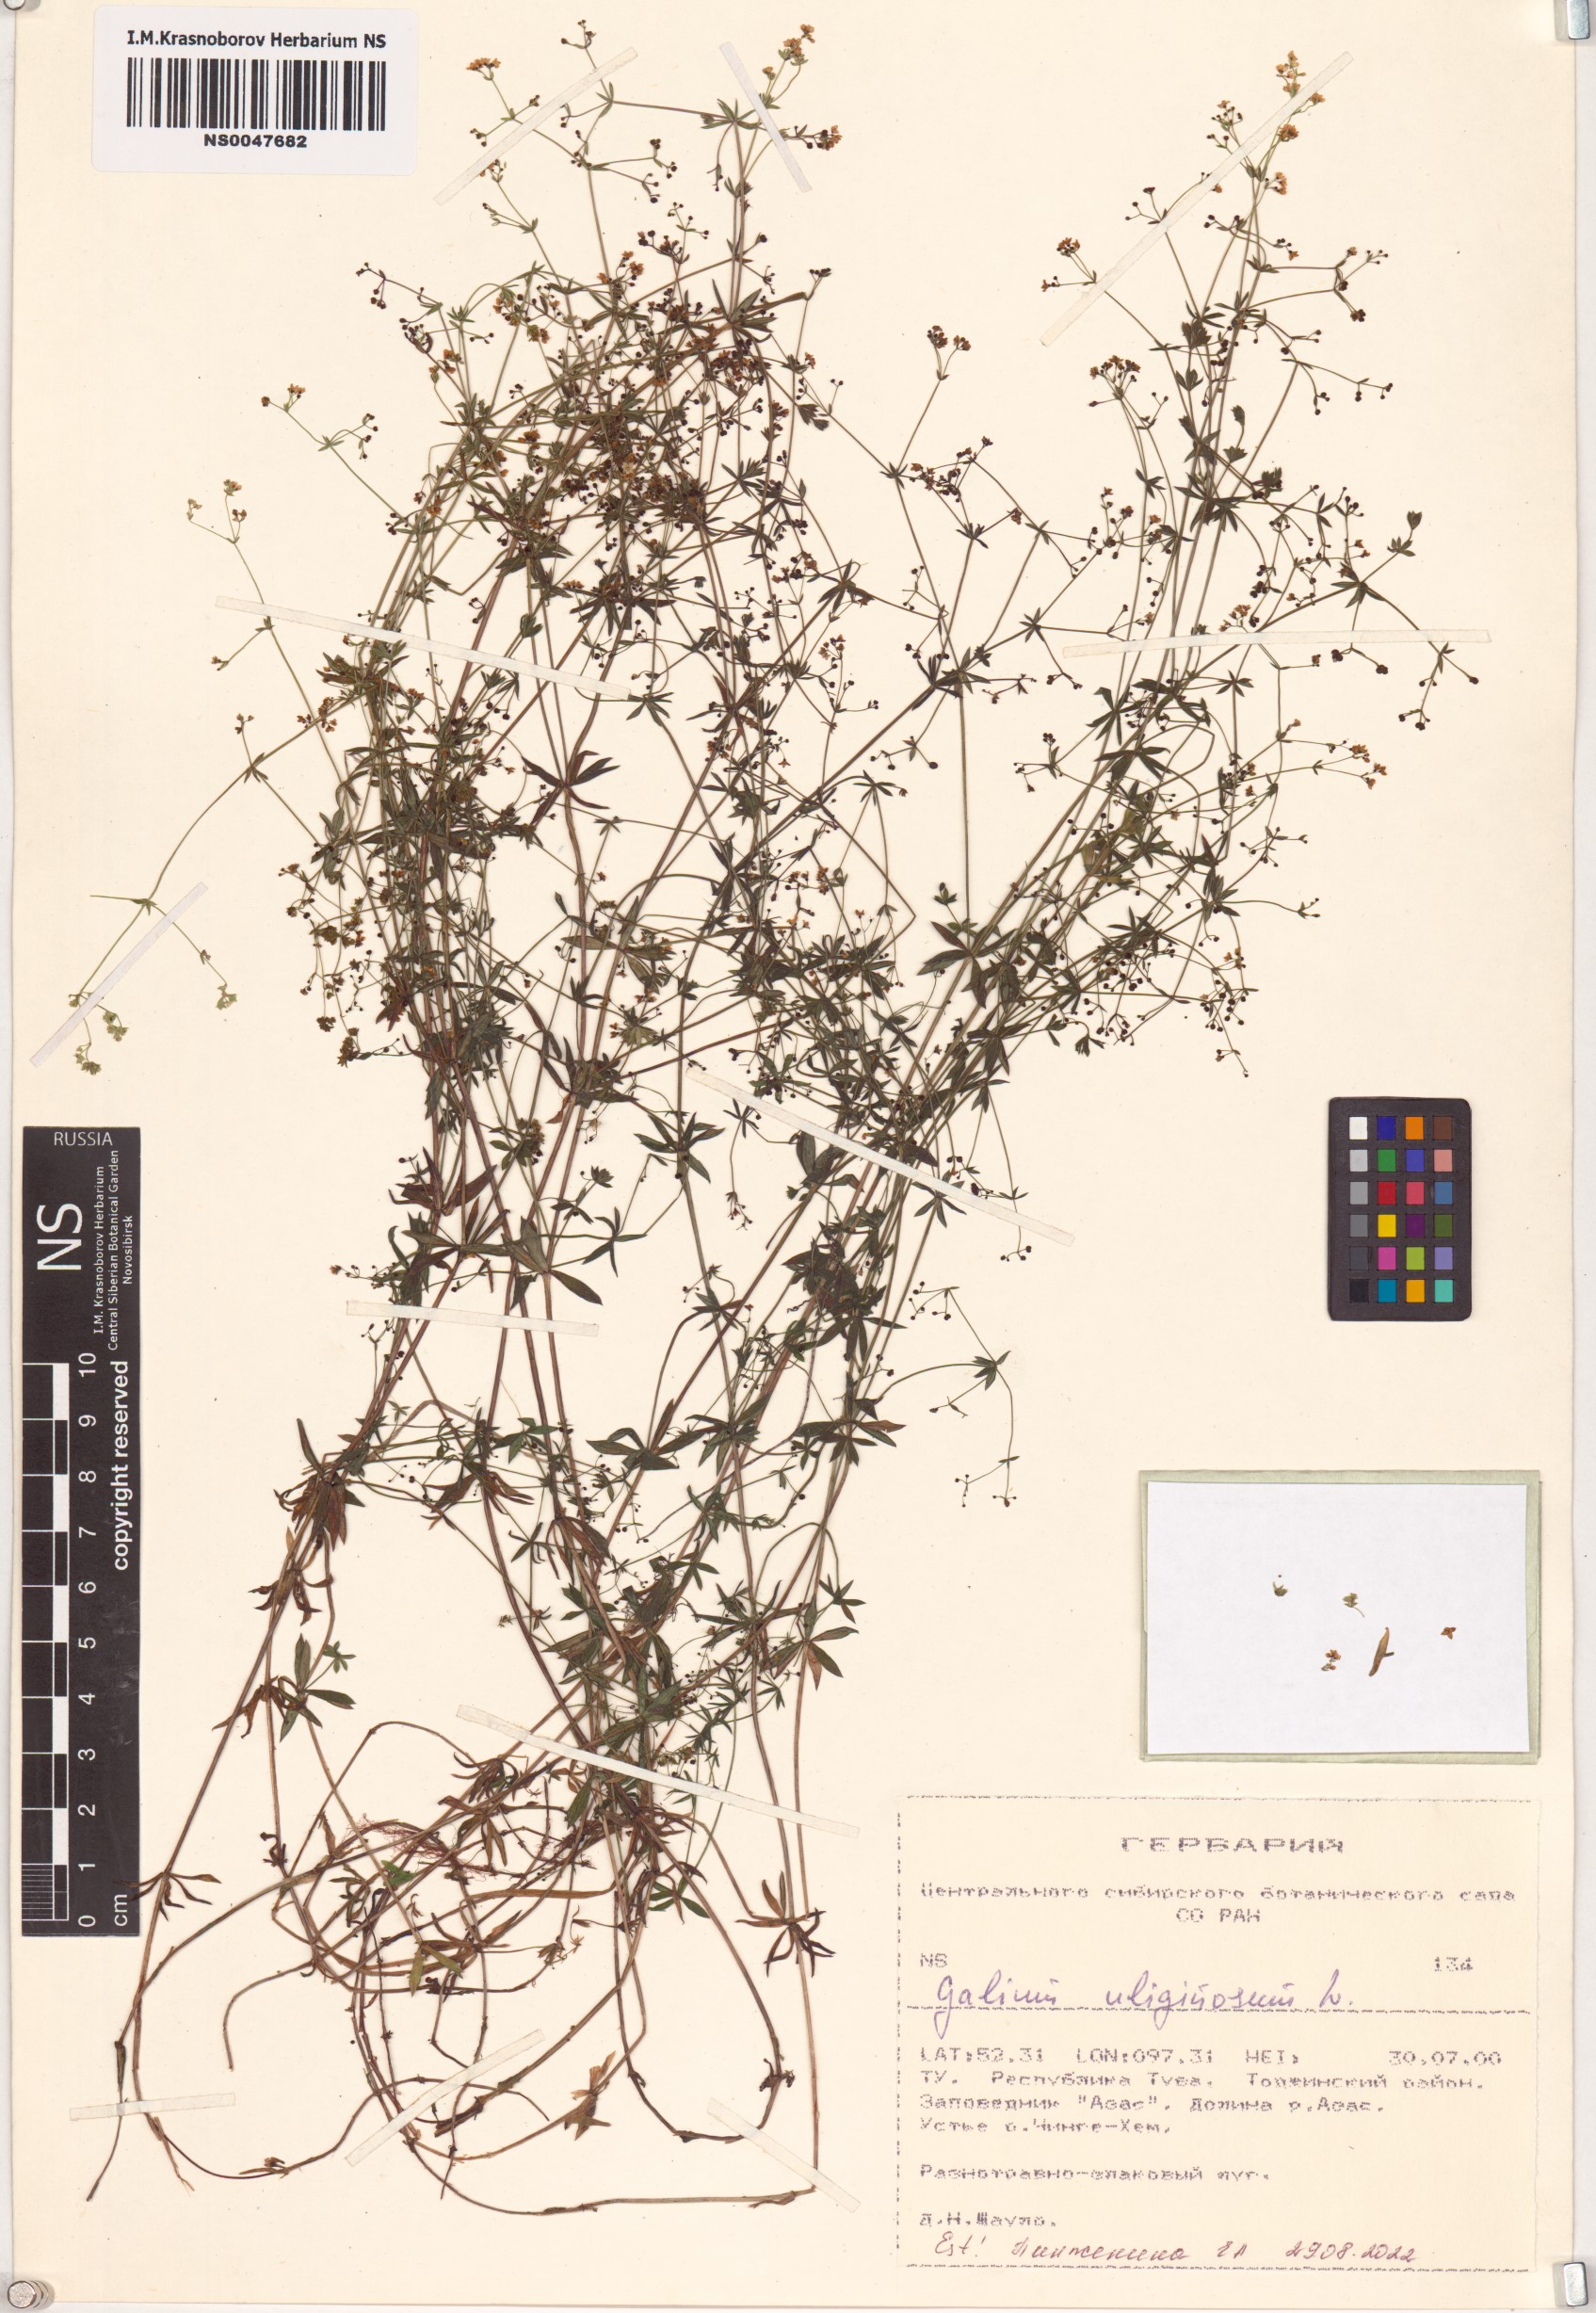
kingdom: Plantae
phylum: Tracheophyta
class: Magnoliopsida
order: Gentianales
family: Rubiaceae
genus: Galium
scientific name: Galium uliginosum
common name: Fen bedstraw
